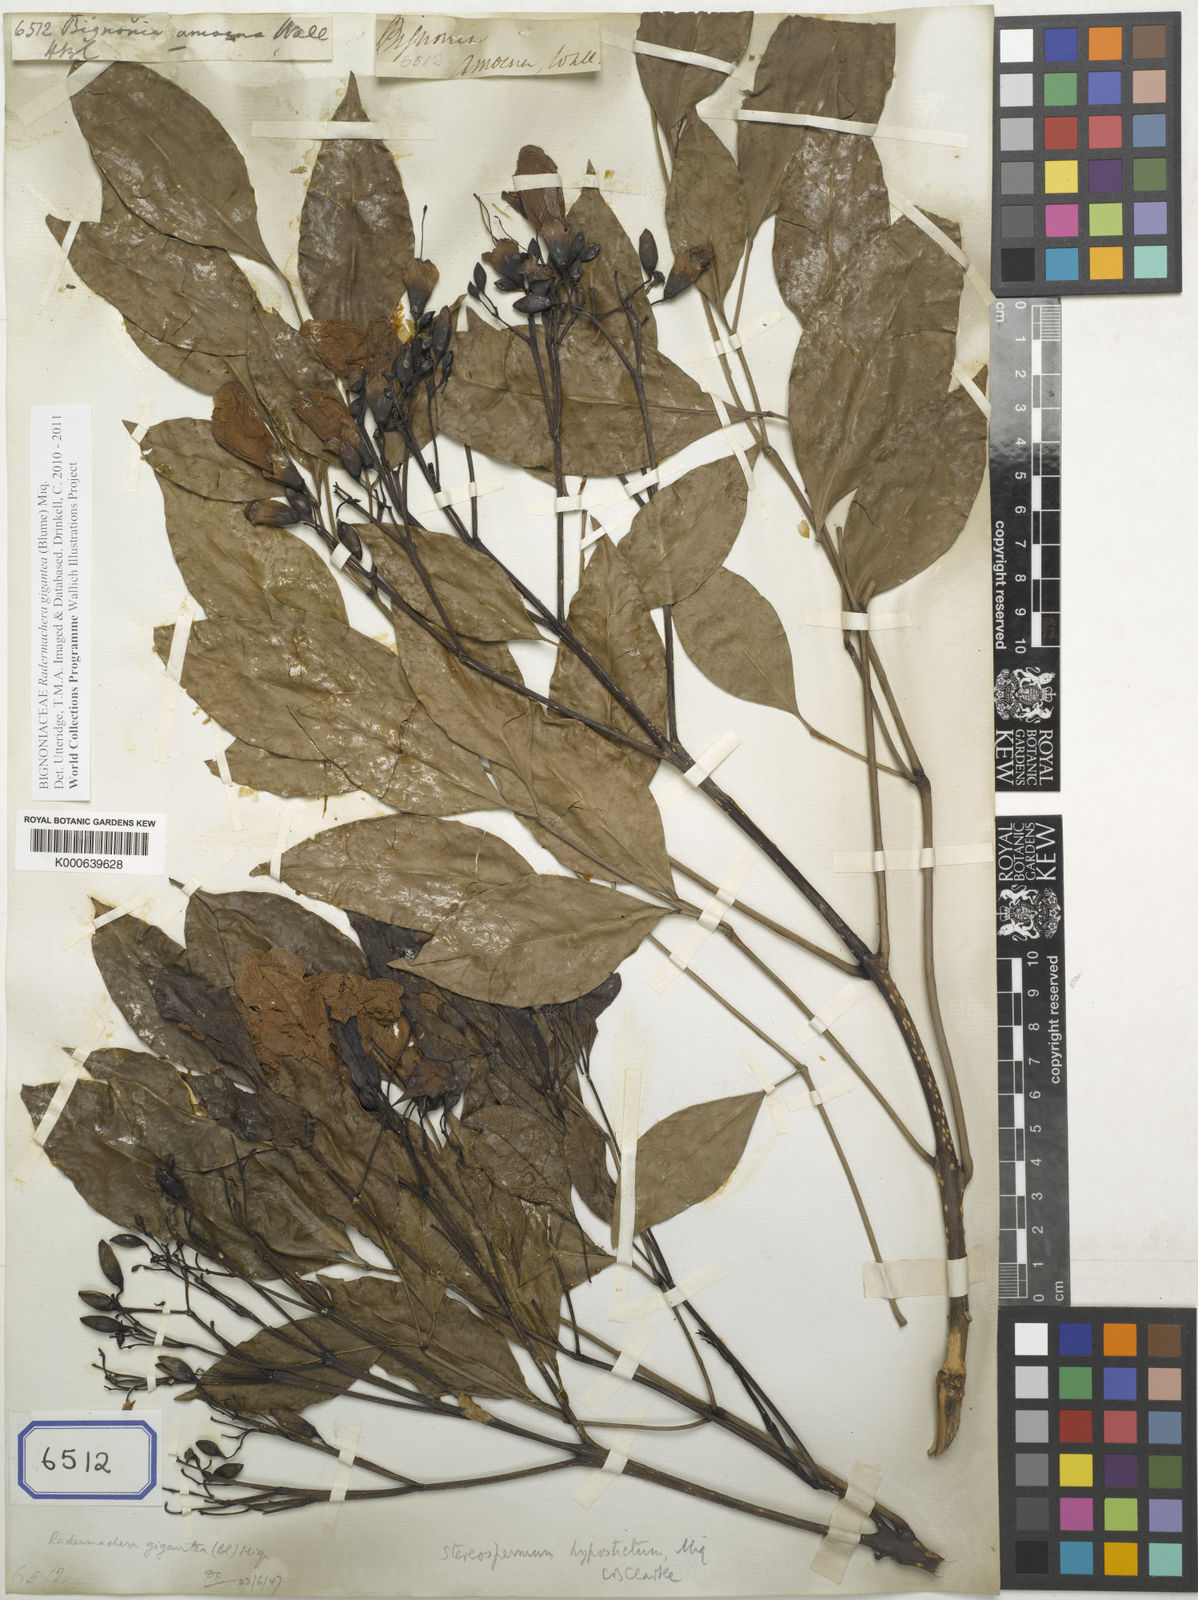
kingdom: Plantae
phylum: Tracheophyta
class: Magnoliopsida
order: Lamiales
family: Bignoniaceae
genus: Radermachera
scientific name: Radermachera gigantea
